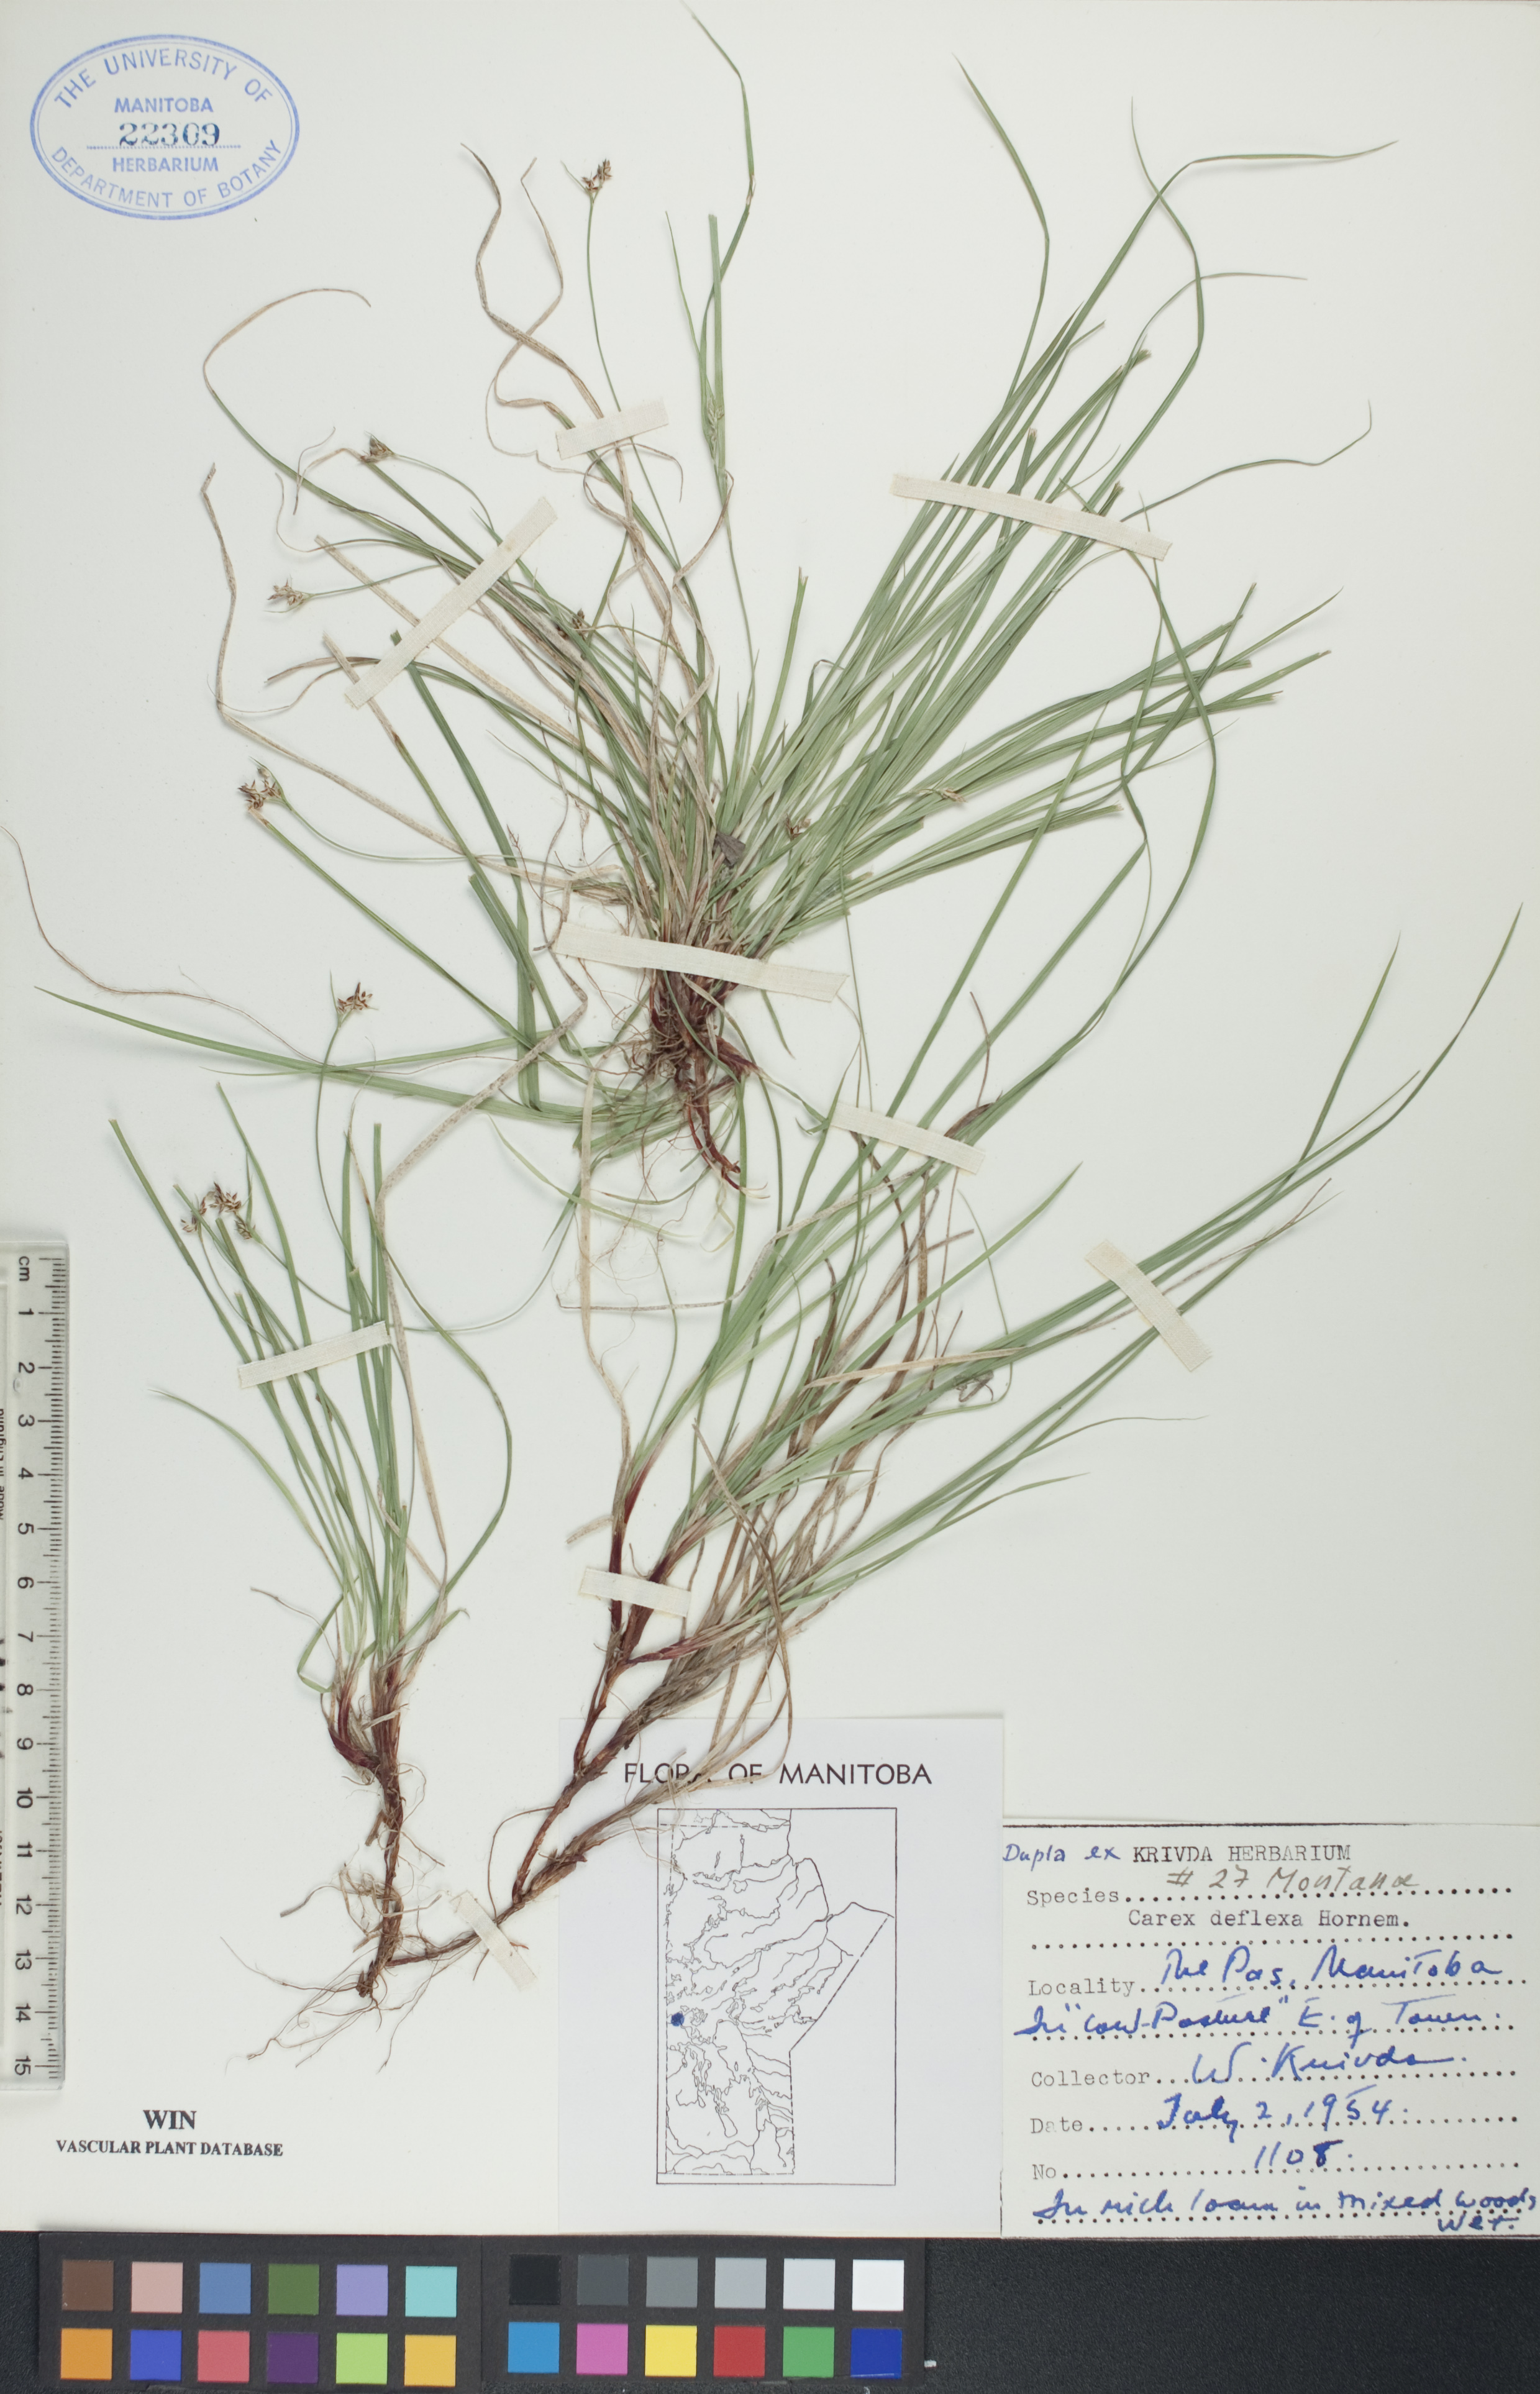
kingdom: Plantae
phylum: Tracheophyta
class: Liliopsida
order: Poales
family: Cyperaceae
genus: Carex
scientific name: Carex deflexa
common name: Bent northern sedge
